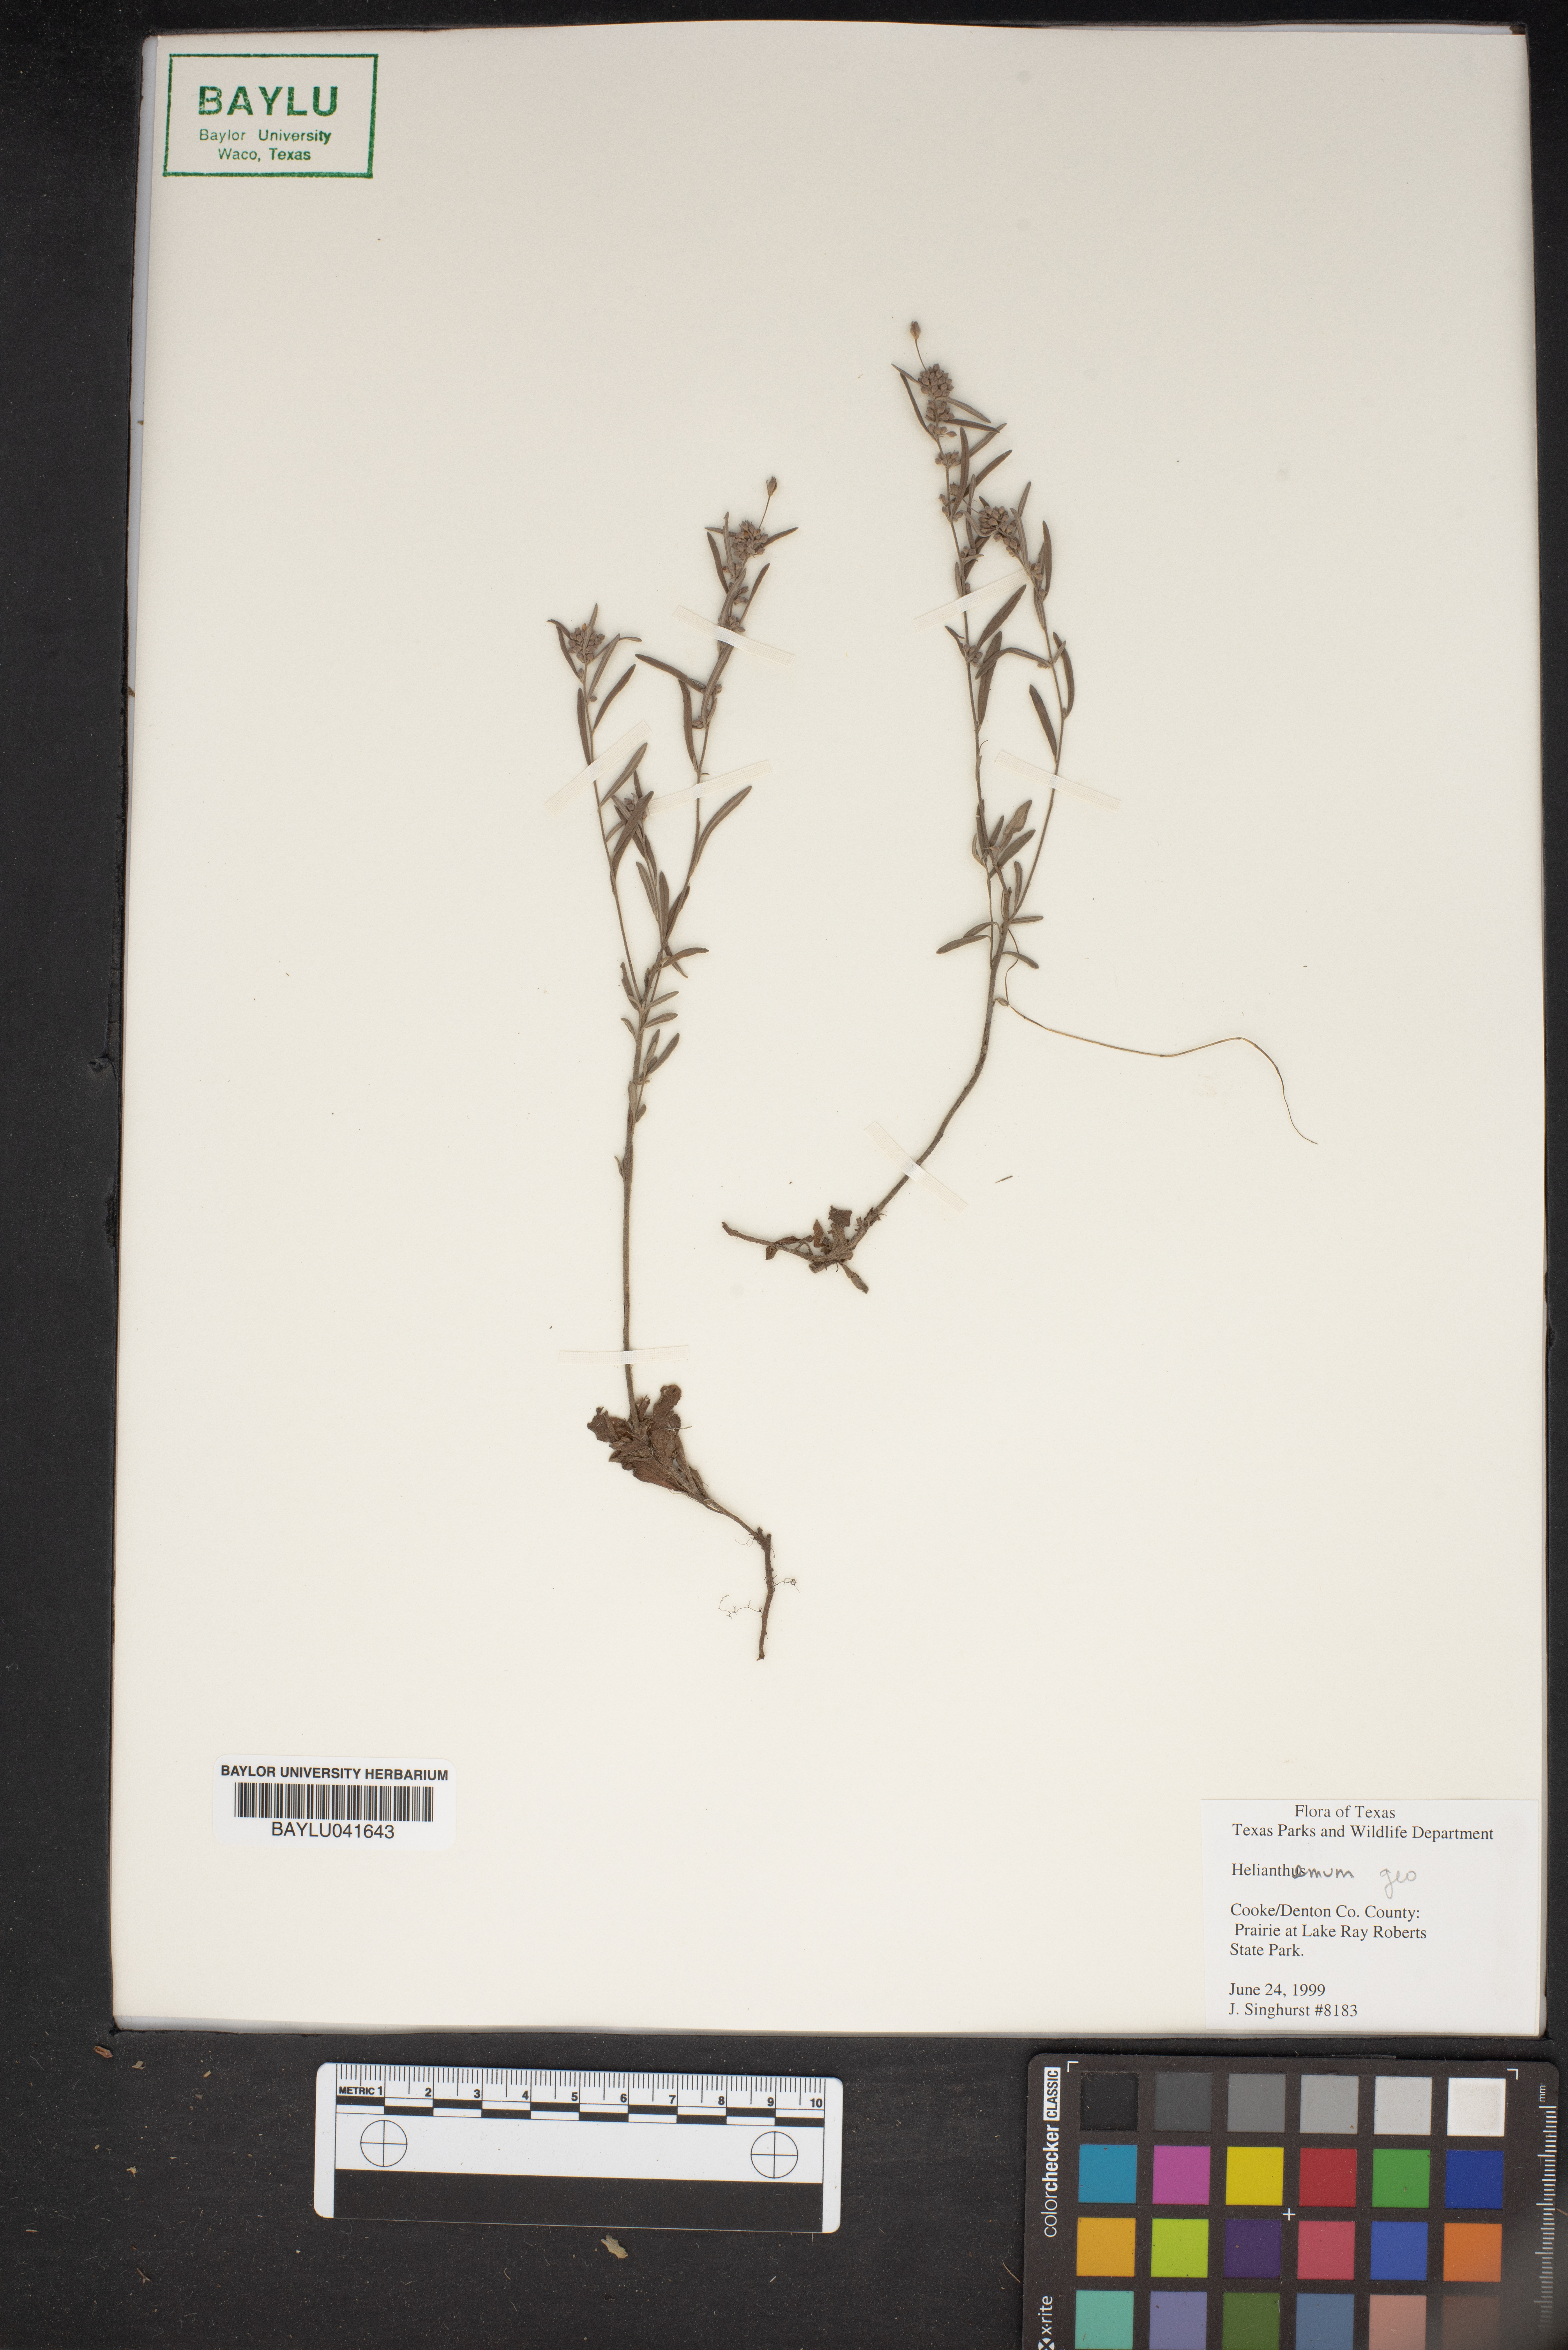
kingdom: Plantae
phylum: Tracheophyta
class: Magnoliopsida
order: Malvales
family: Cistaceae
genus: Helianthemum
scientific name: Helianthemum
